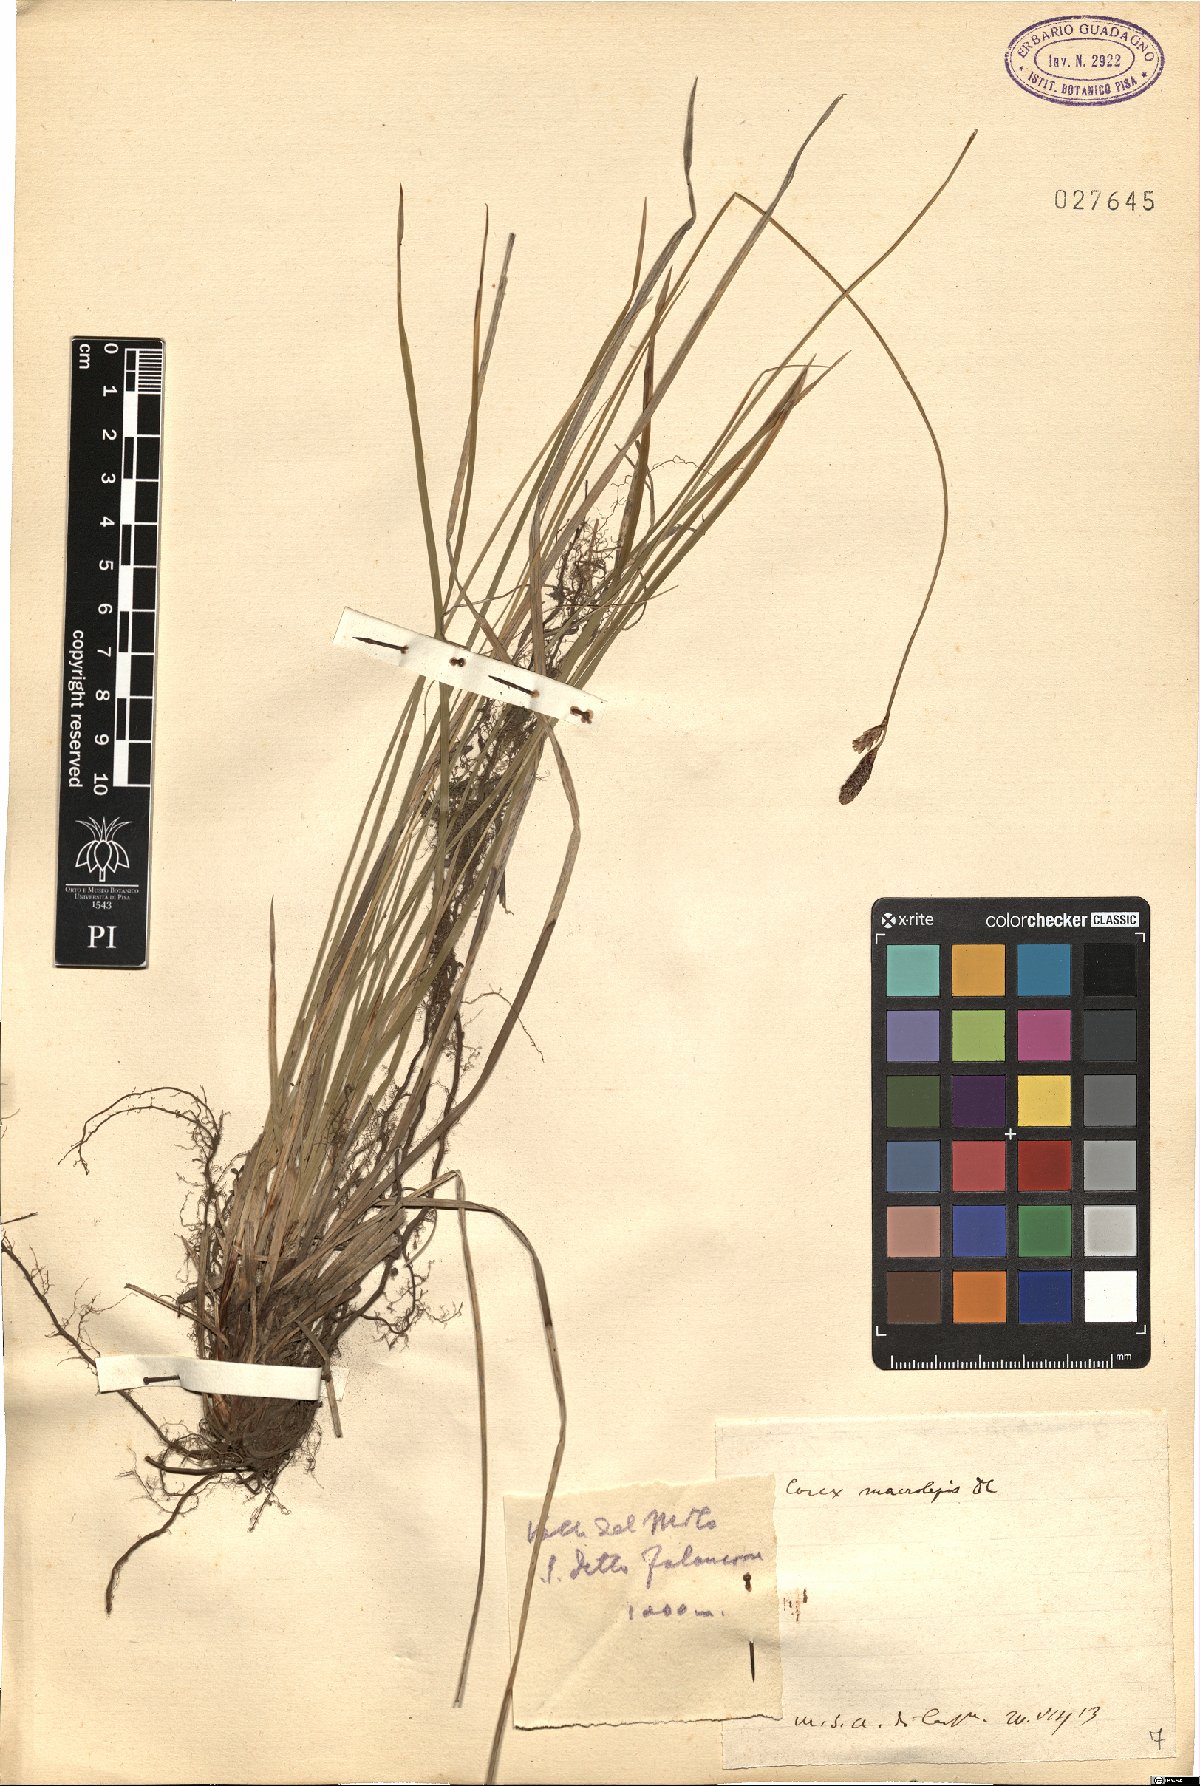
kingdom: Plantae
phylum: Tracheophyta
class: Liliopsida
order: Poales
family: Cyperaceae
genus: Carex
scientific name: Carex macrolepis
